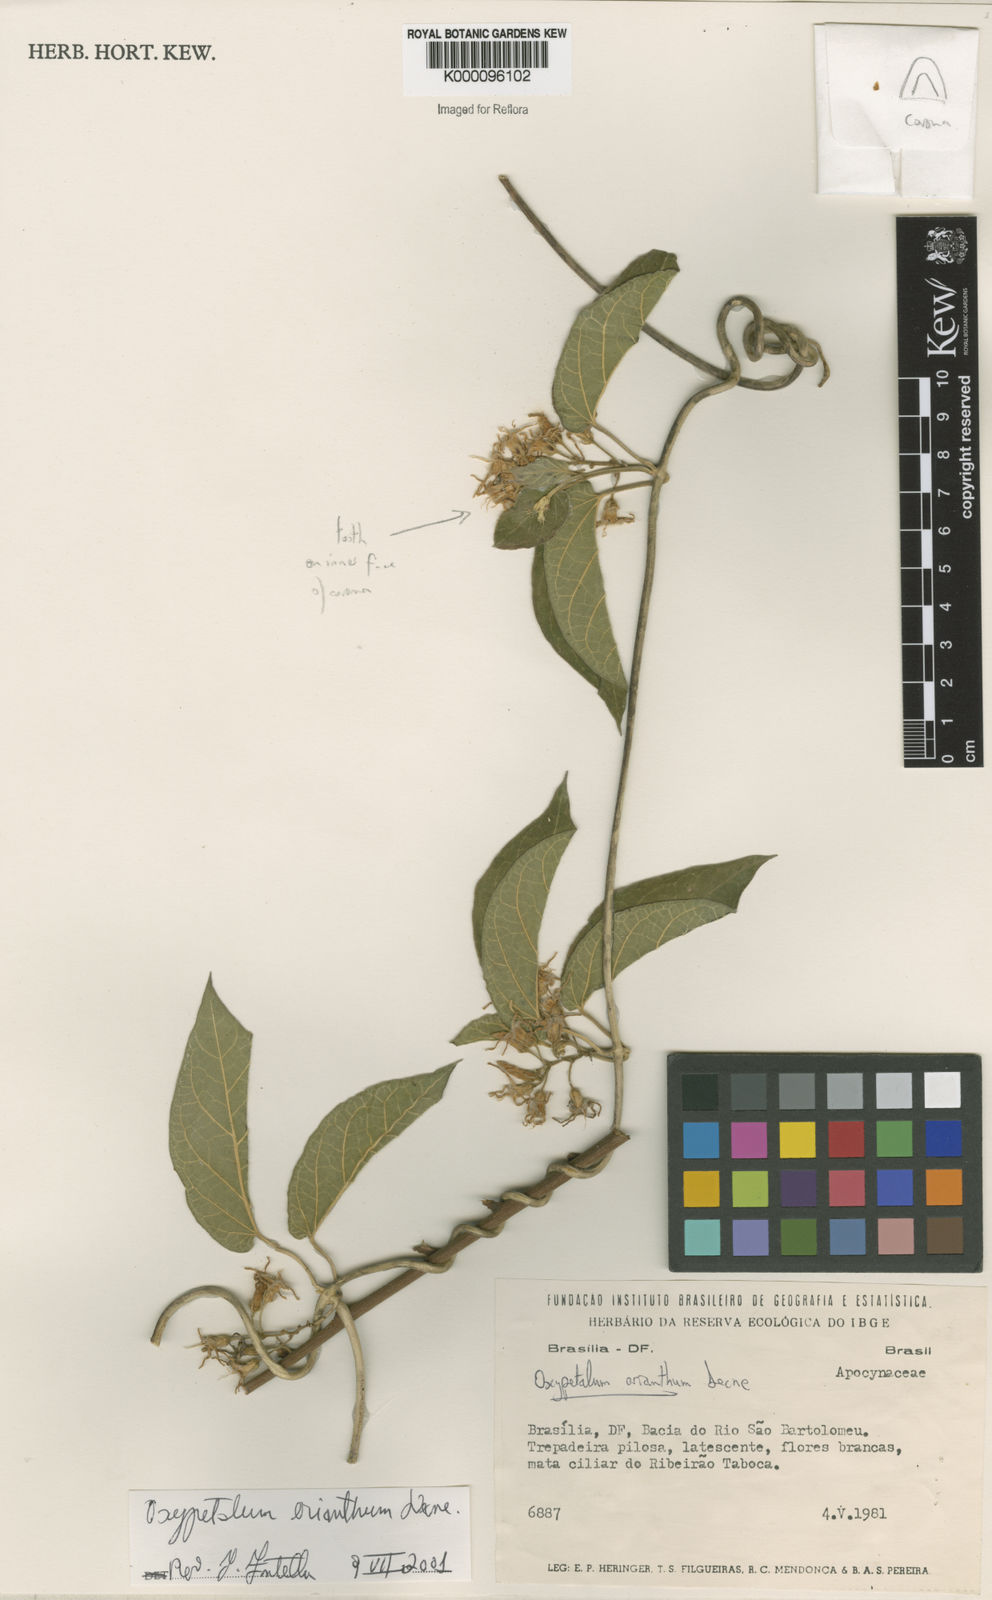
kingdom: Plantae
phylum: Tracheophyta
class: Magnoliopsida
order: Gentianales
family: Apocynaceae
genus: Oxypetalum
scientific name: Oxypetalum erianthum
